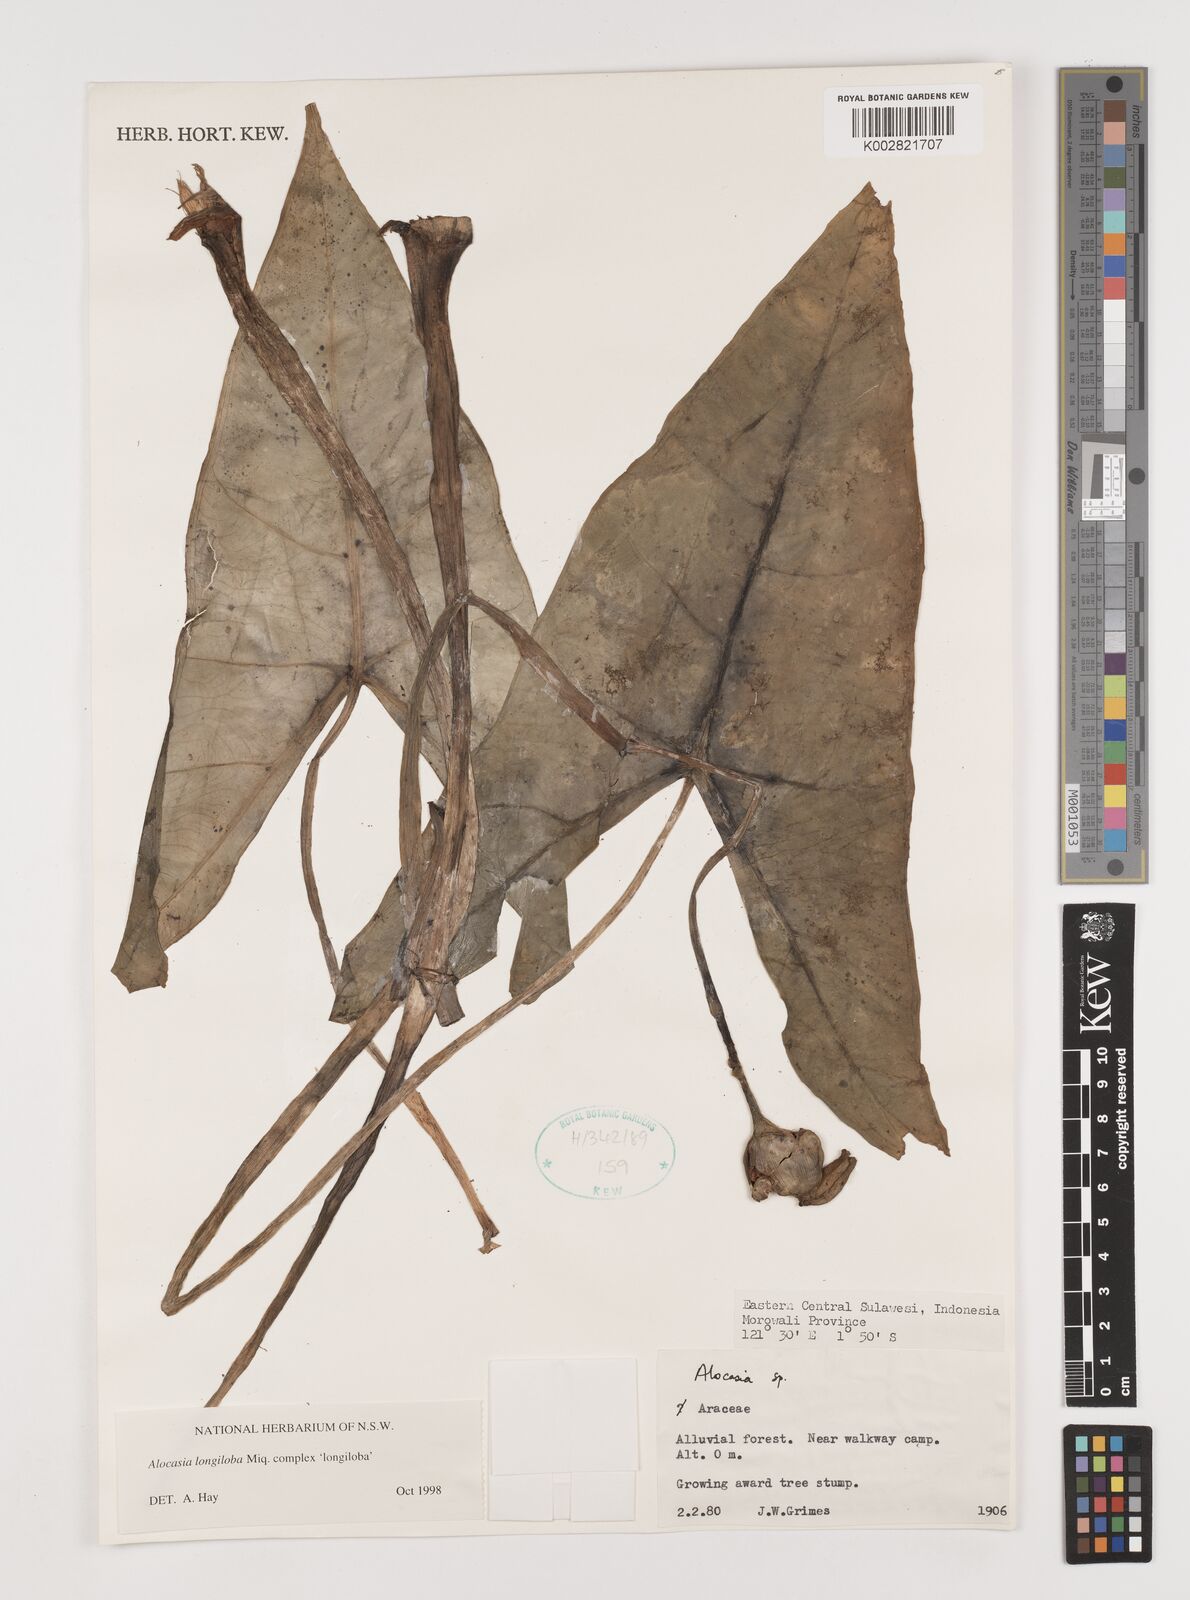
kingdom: Plantae
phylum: Tracheophyta
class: Liliopsida
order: Alismatales
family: Araceae
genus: Alocasia
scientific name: Alocasia longiloba
